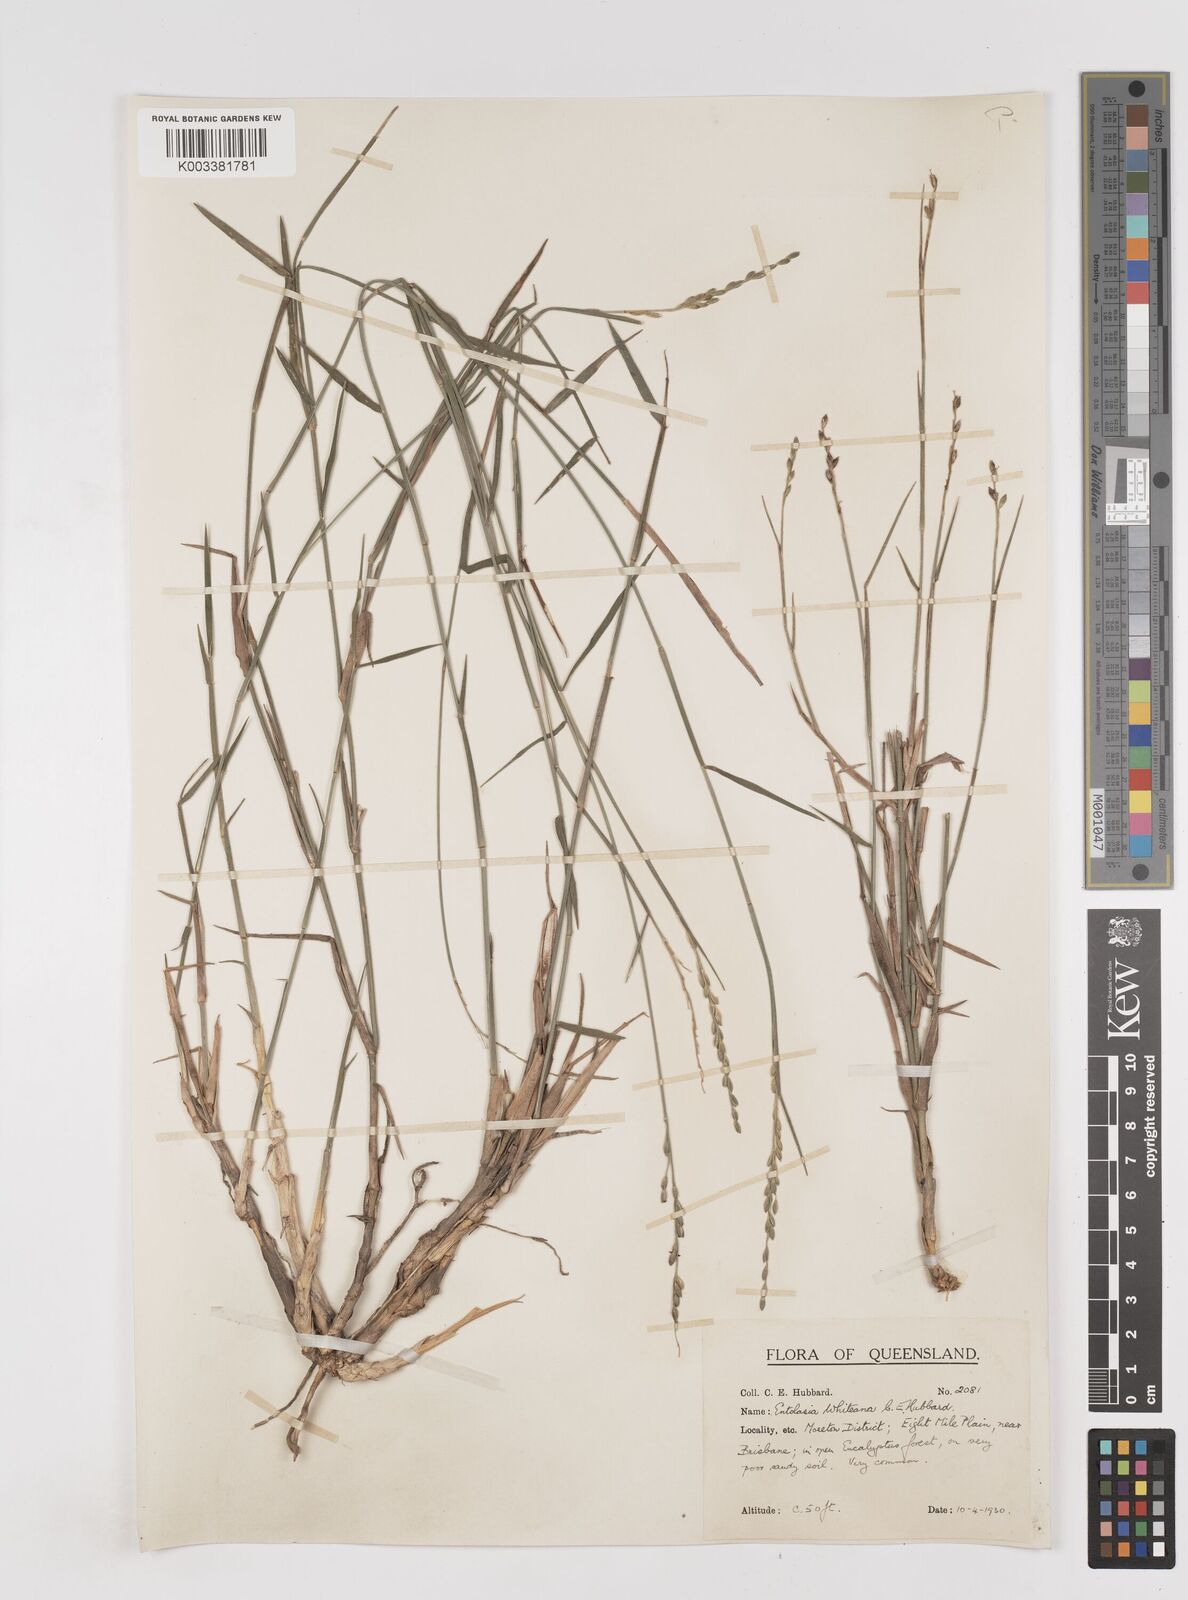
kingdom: Plantae
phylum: Tracheophyta
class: Liliopsida
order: Poales
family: Poaceae
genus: Entolasia
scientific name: Entolasia whiteana
